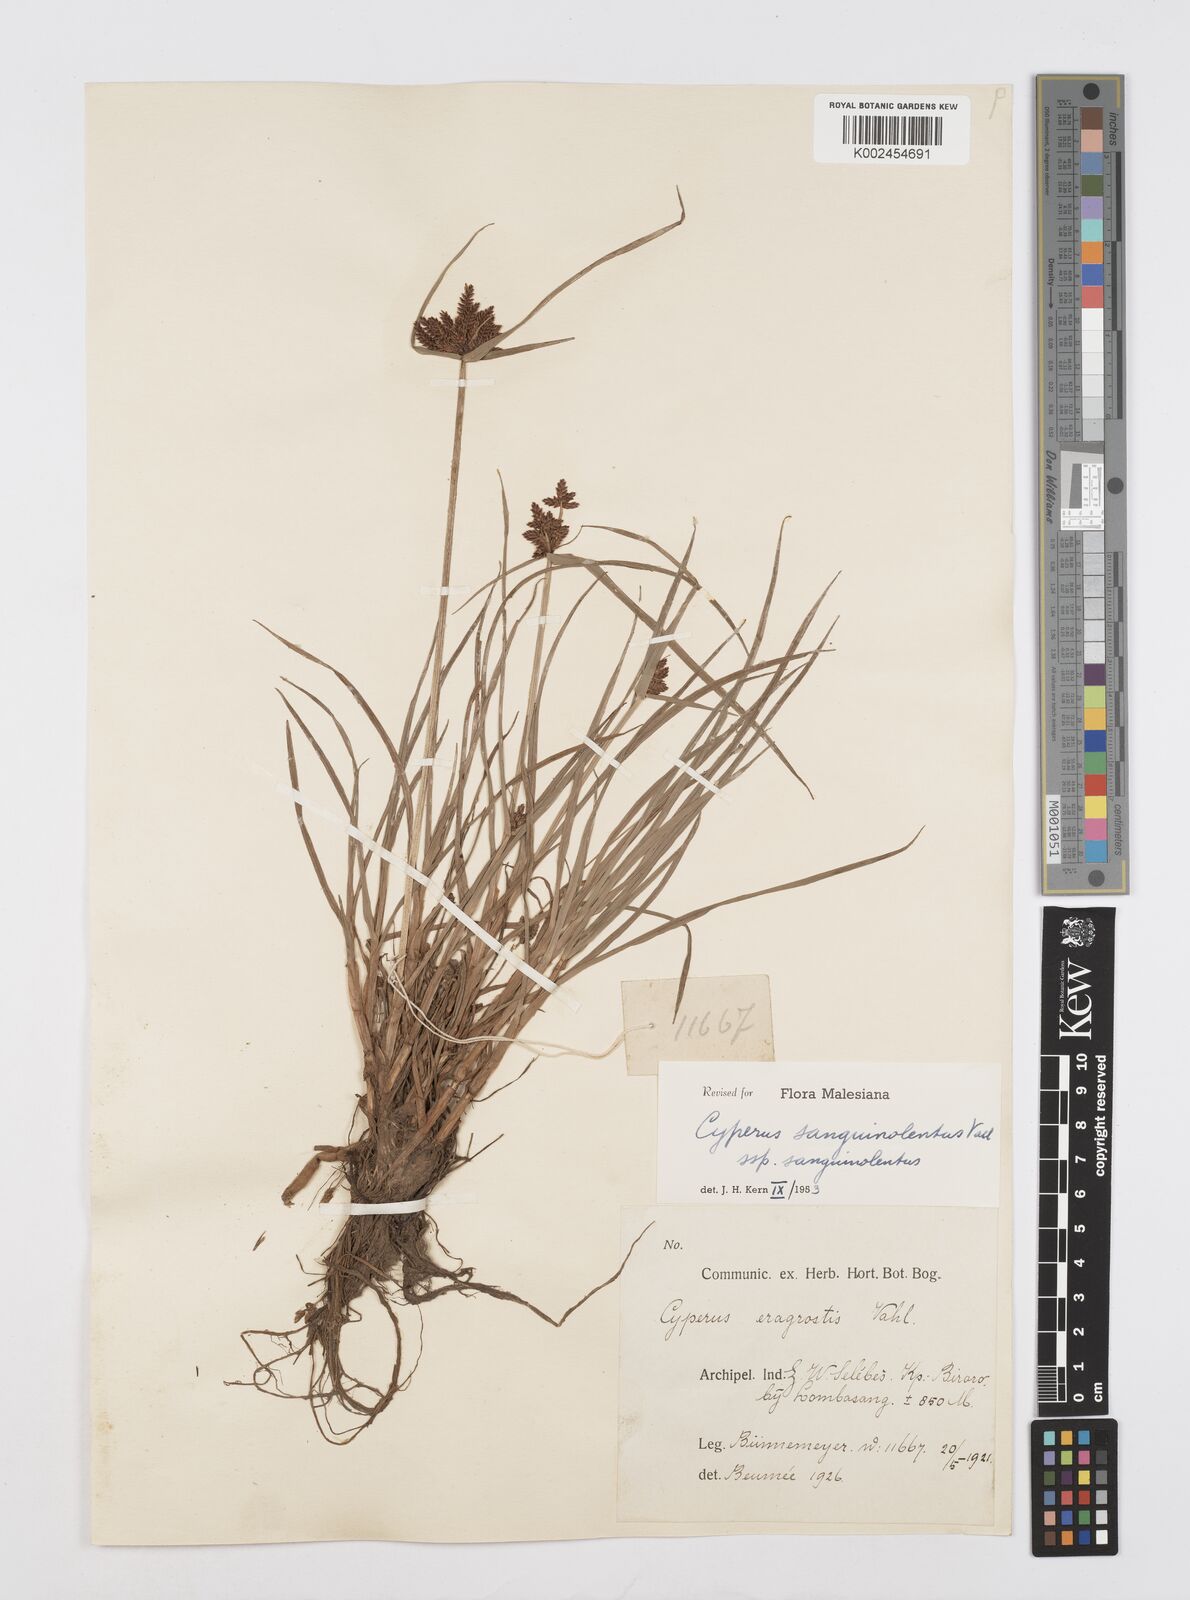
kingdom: Plantae
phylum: Tracheophyta
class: Liliopsida
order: Poales
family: Cyperaceae
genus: Cyperus
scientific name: Cyperus sanguinolentus
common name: Purpleglume flatsedge
